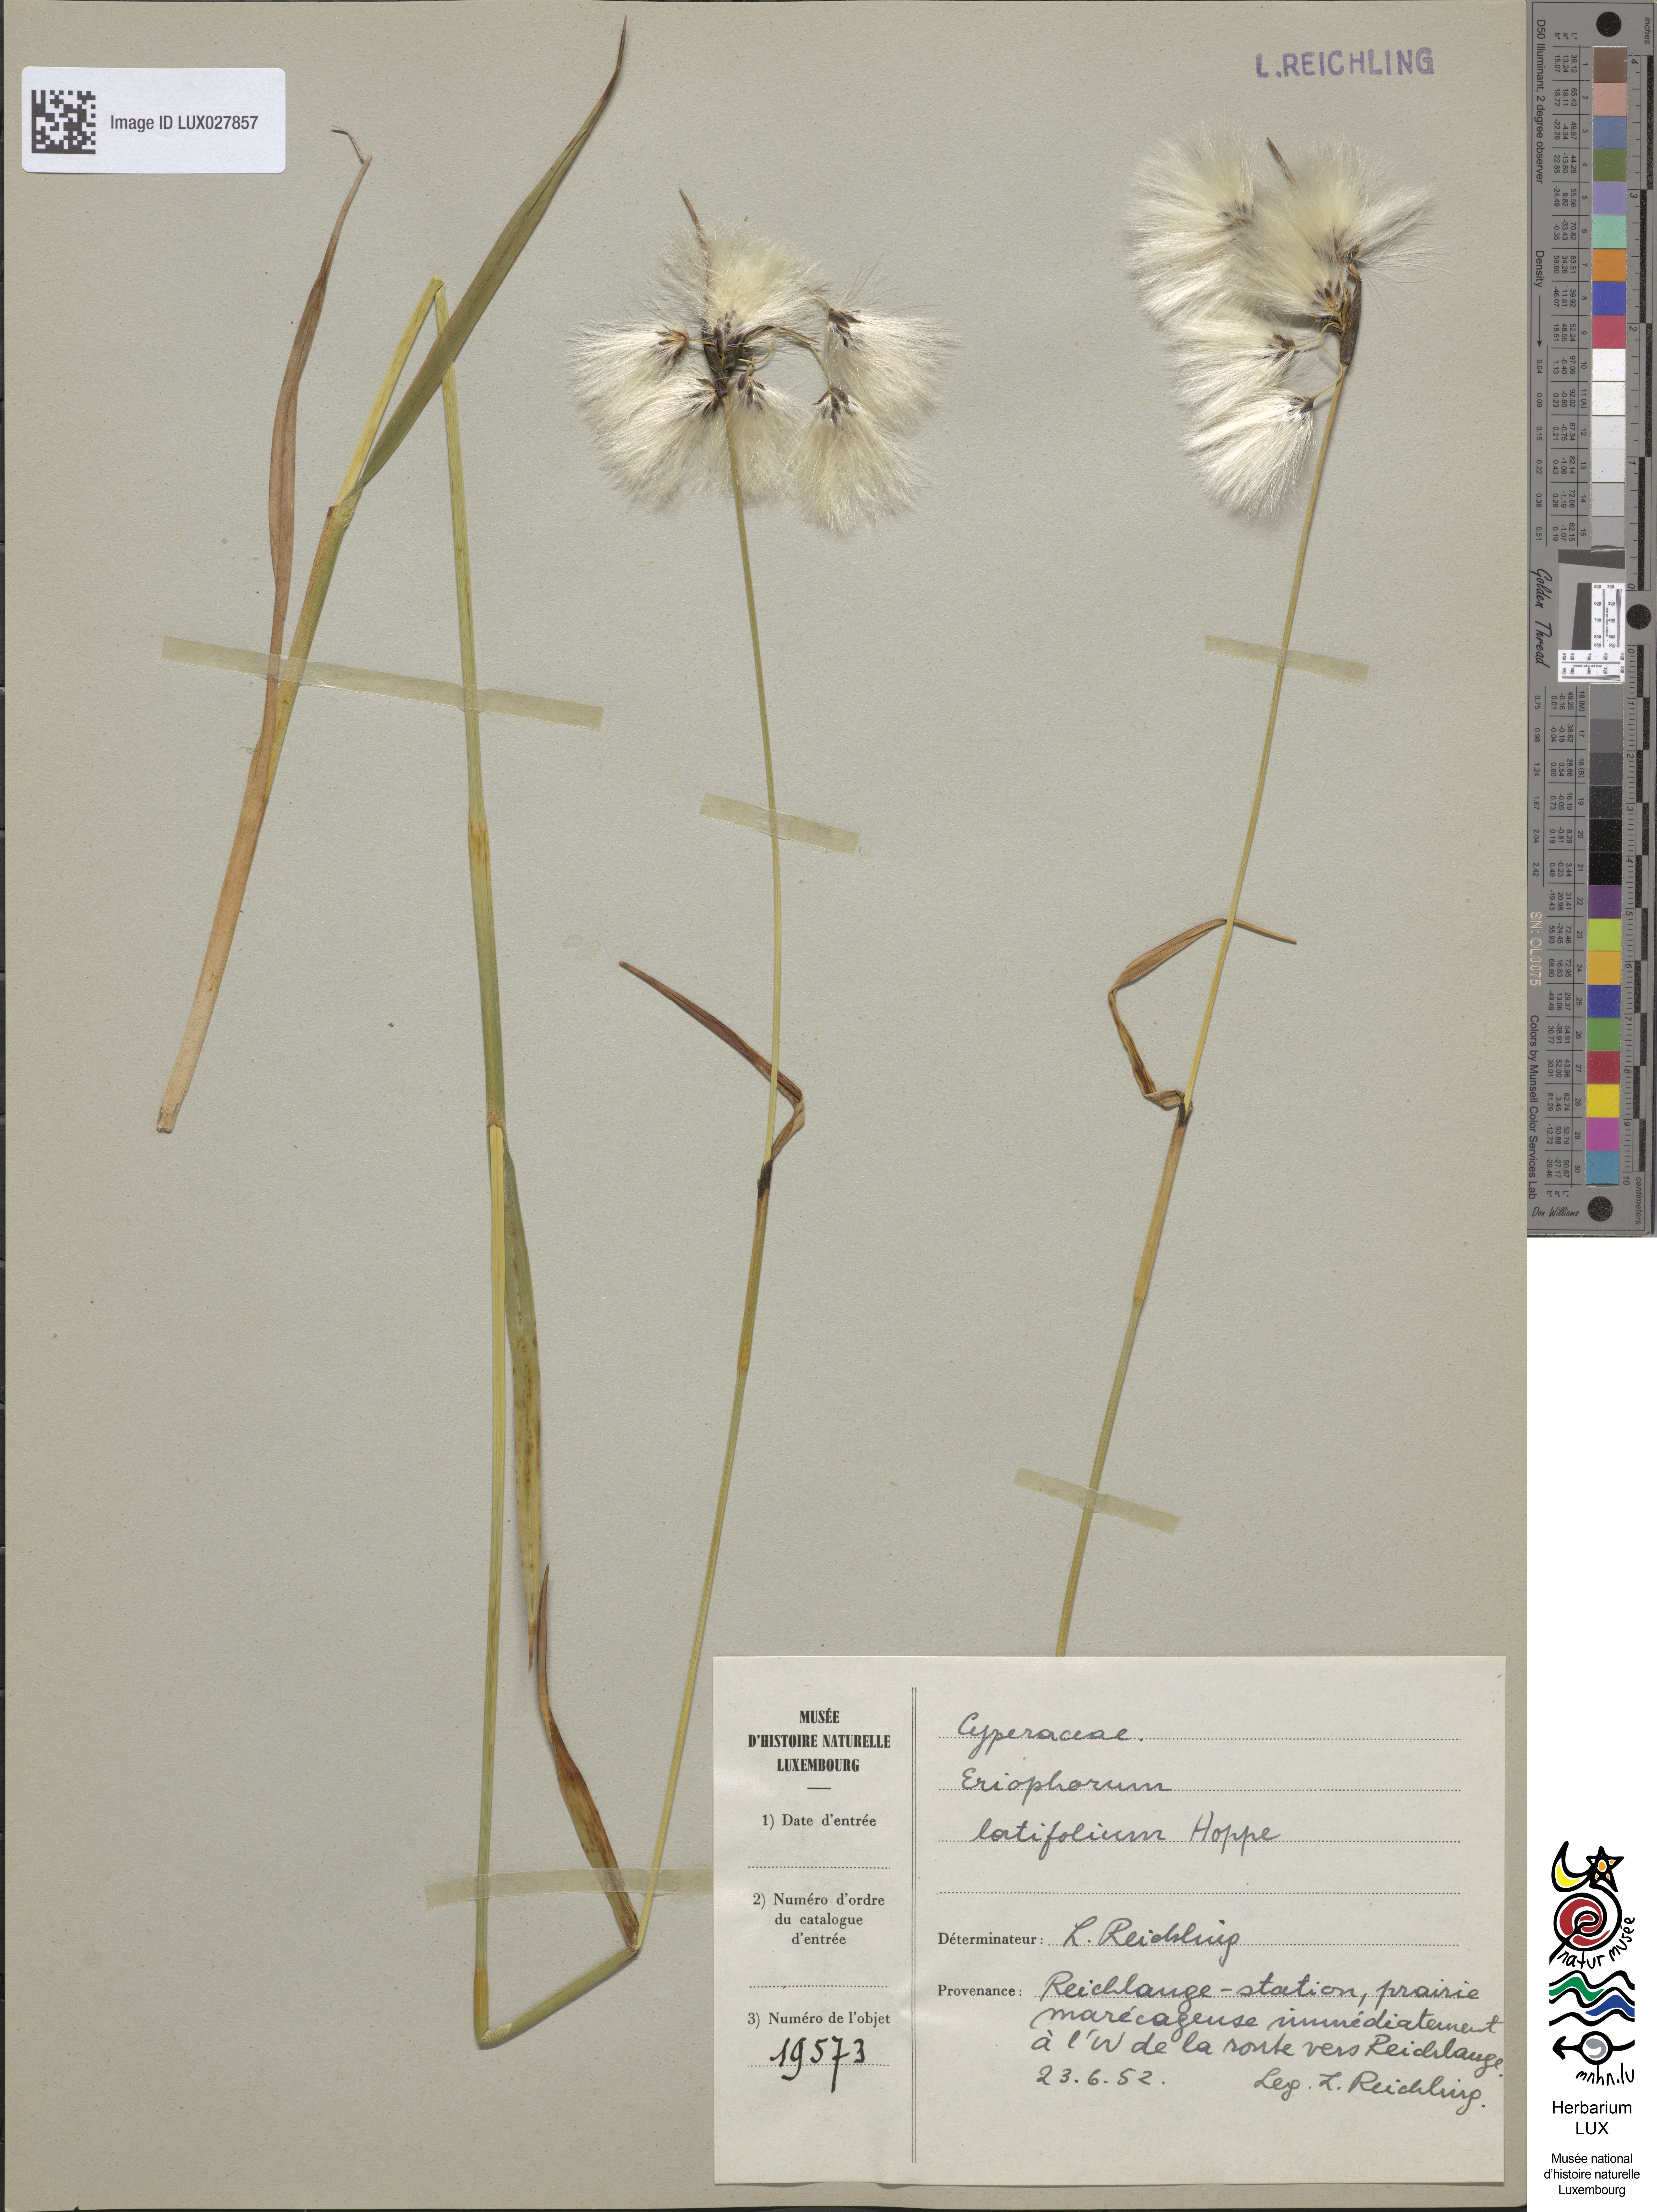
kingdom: Plantae
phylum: Tracheophyta
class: Liliopsida
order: Poales
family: Cyperaceae
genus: Eriophorum
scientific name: Eriophorum latifolium
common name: Broad-leaved cottongrass
